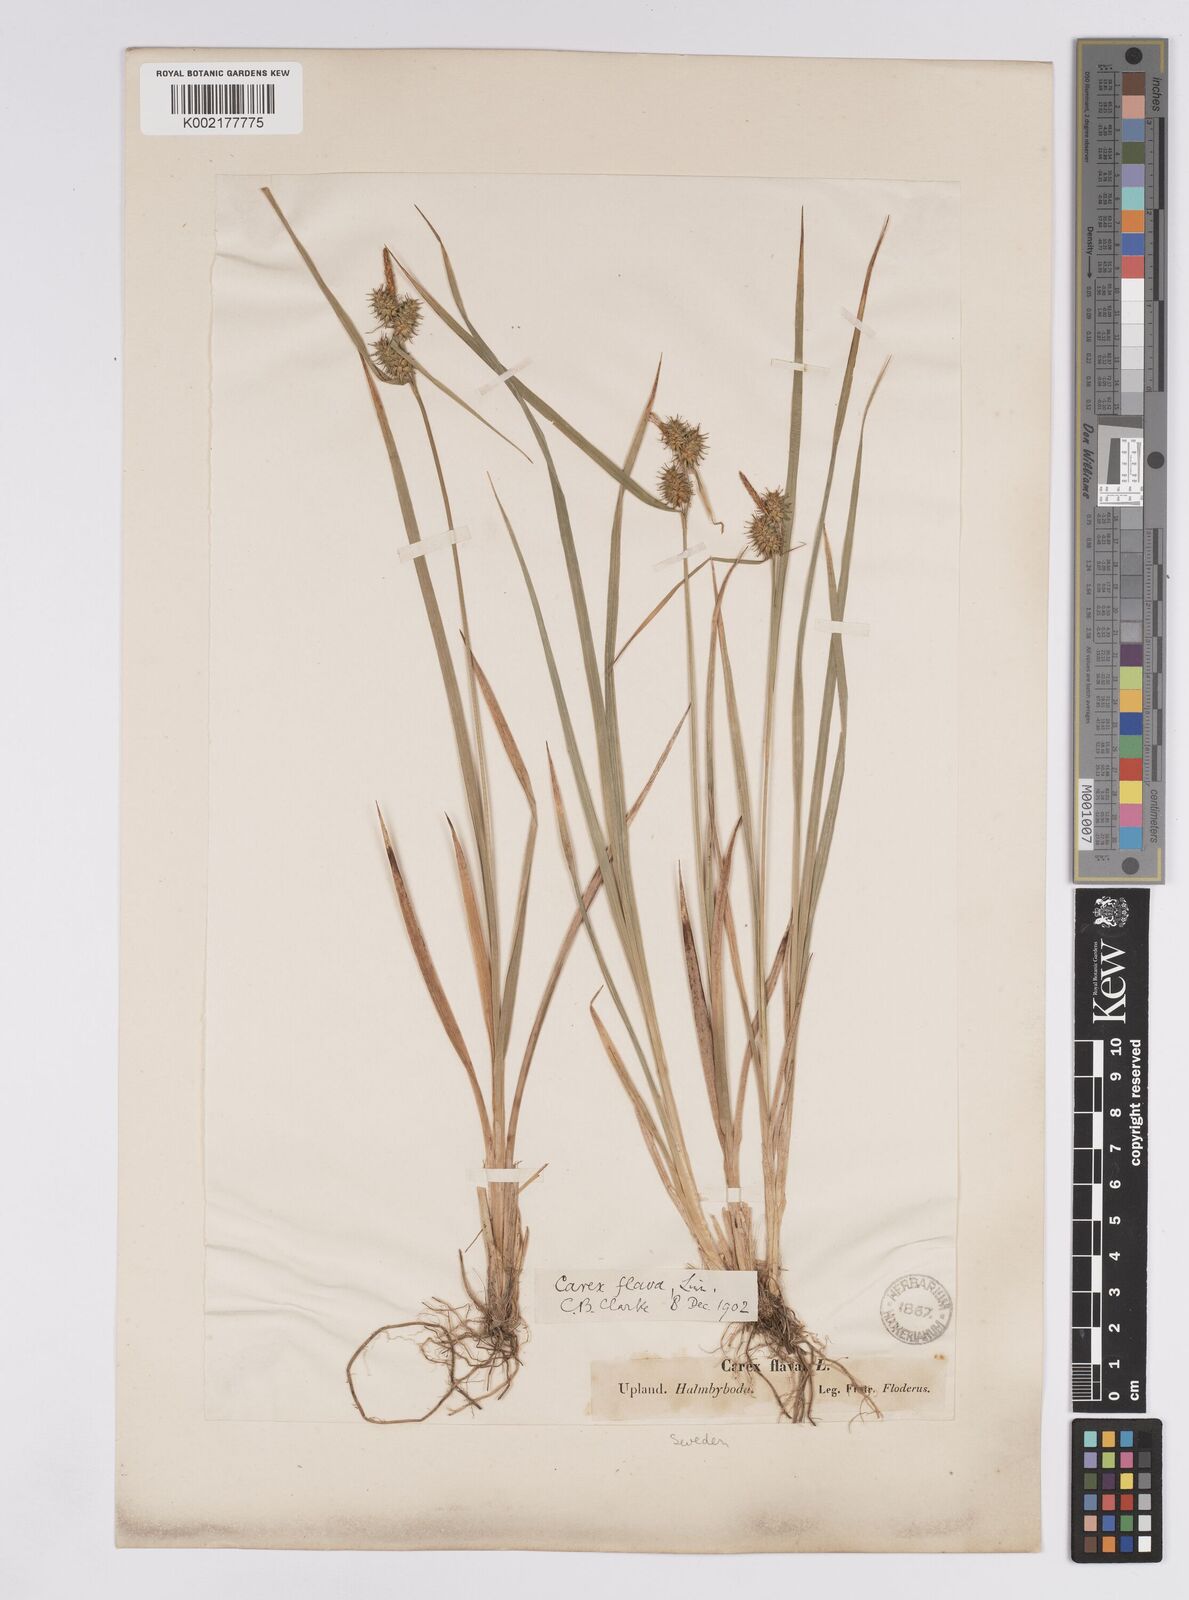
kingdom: Plantae
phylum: Tracheophyta
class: Liliopsida
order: Poales
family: Cyperaceae
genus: Carex
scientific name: Carex flava
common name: Large yellow-sedge
